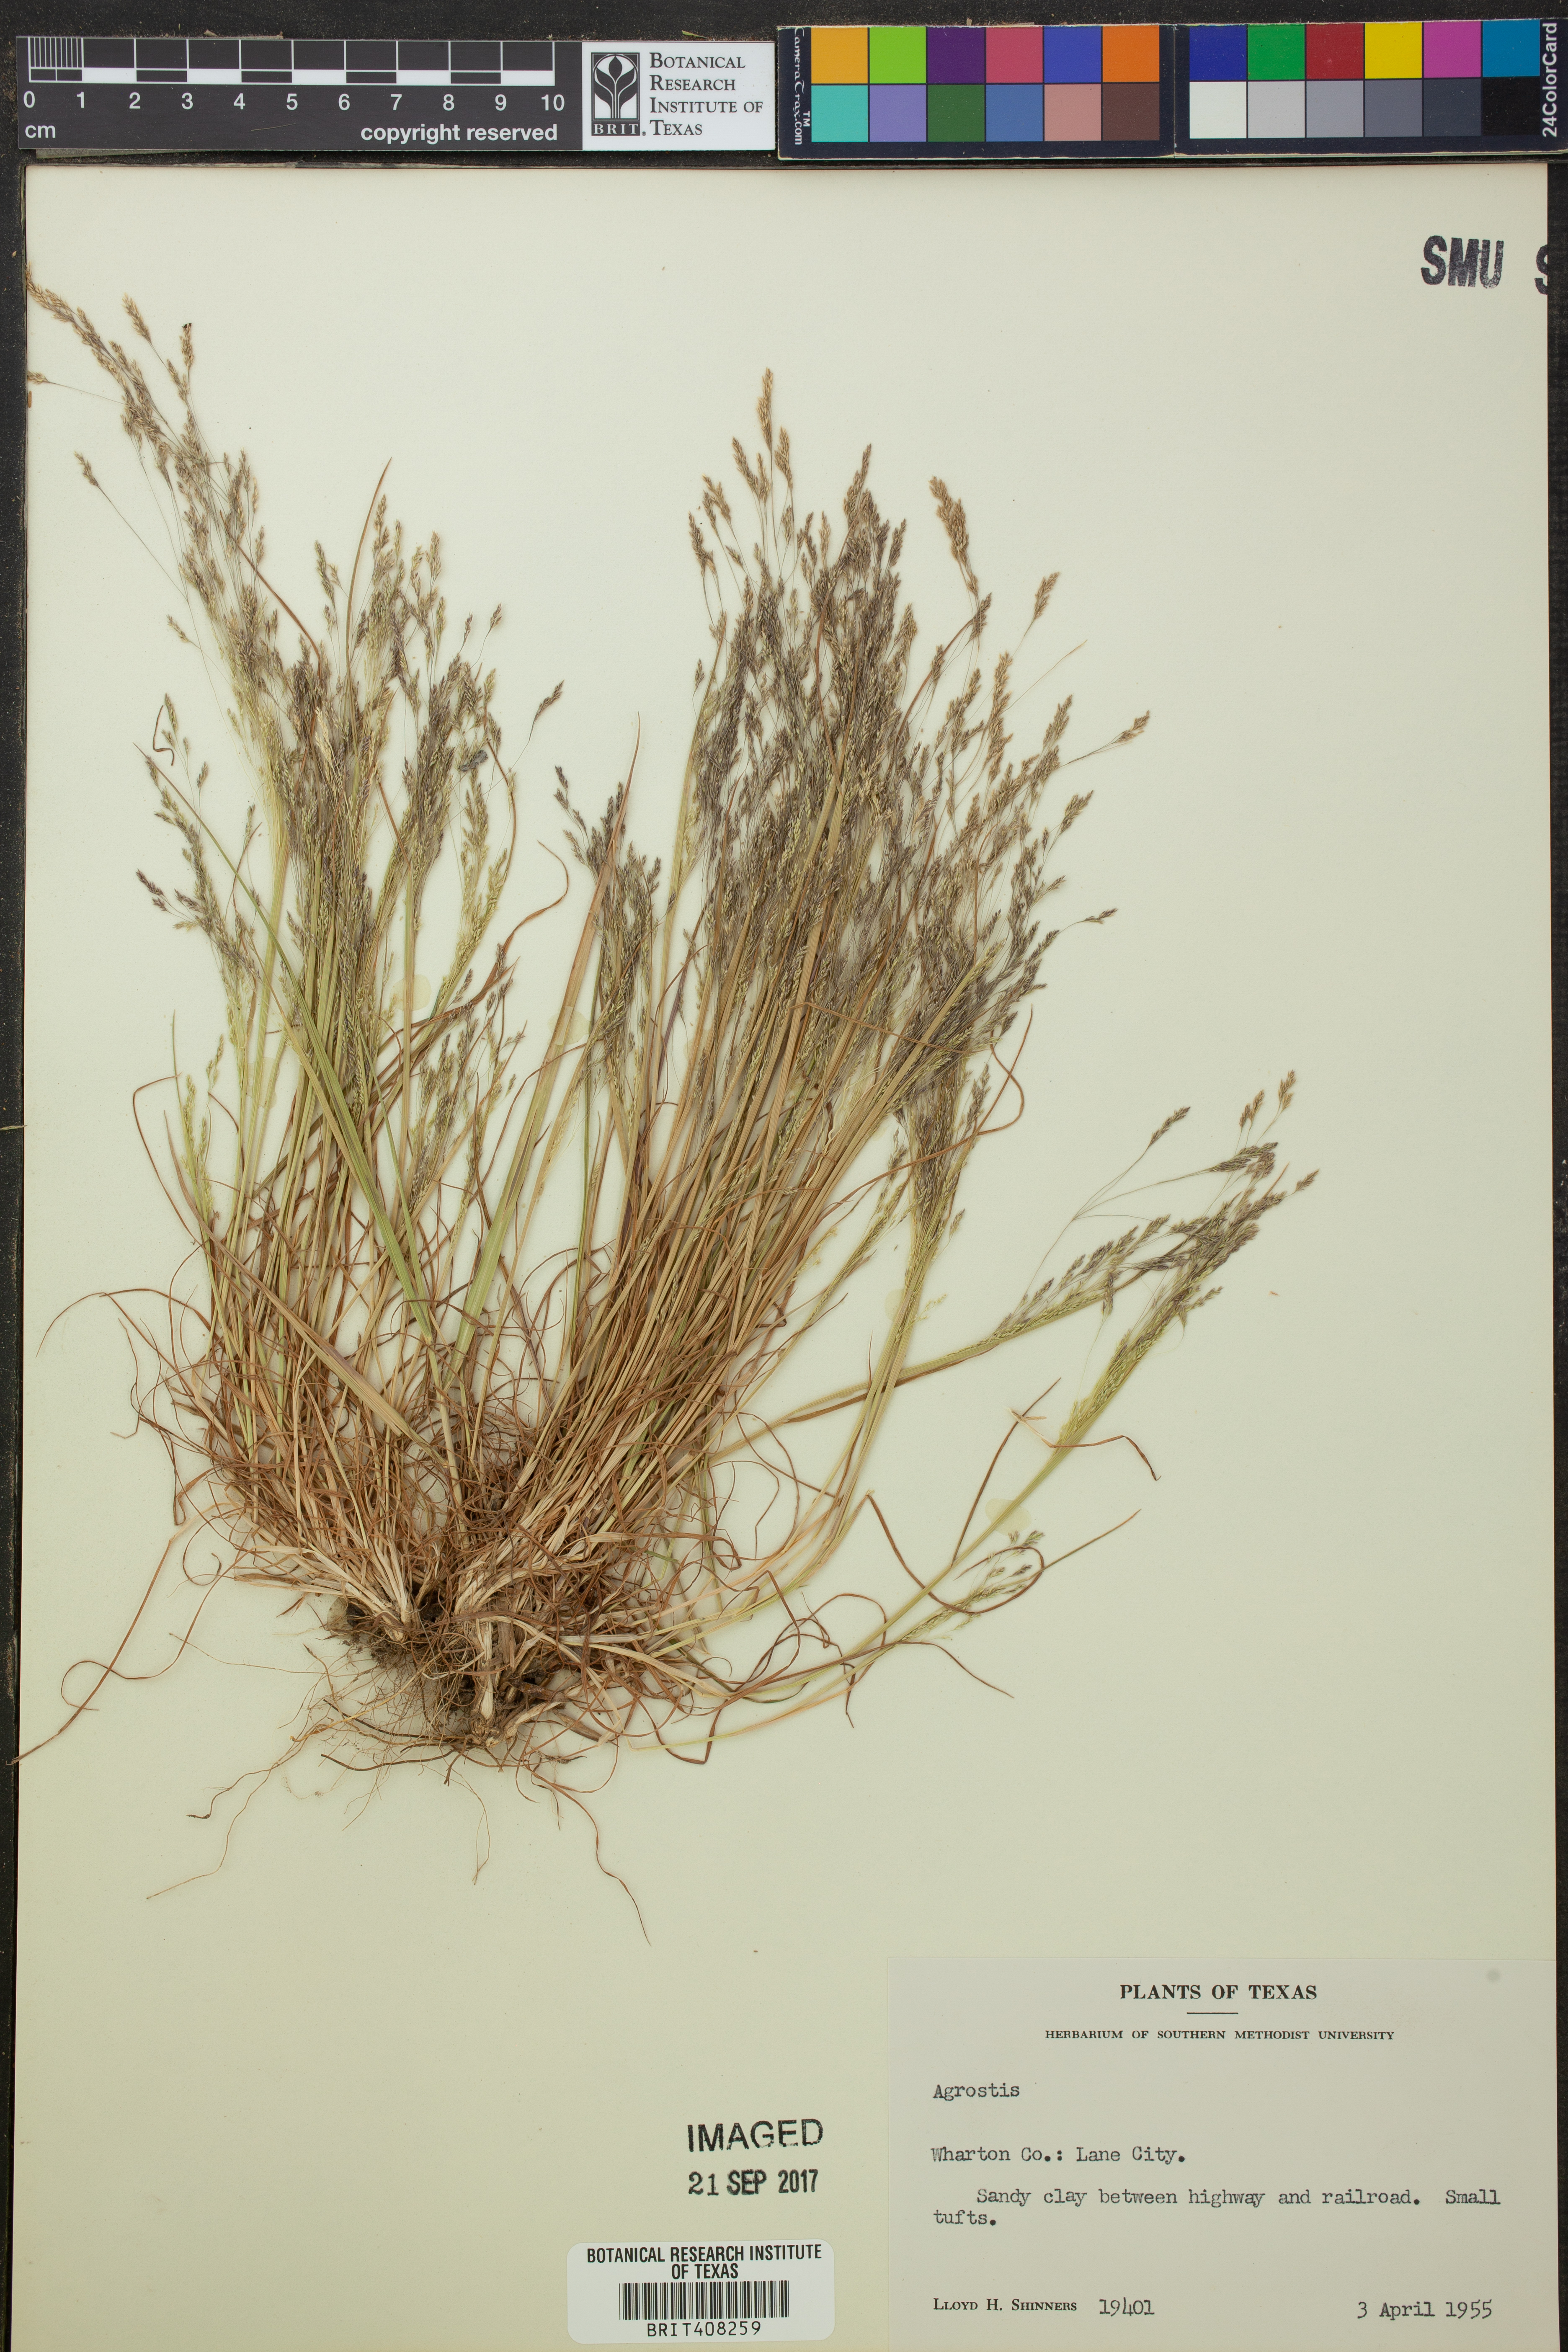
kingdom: Plantae
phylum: Tracheophyta
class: Liliopsida
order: Poales
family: Poaceae
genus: Agrostis
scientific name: Agrostis
